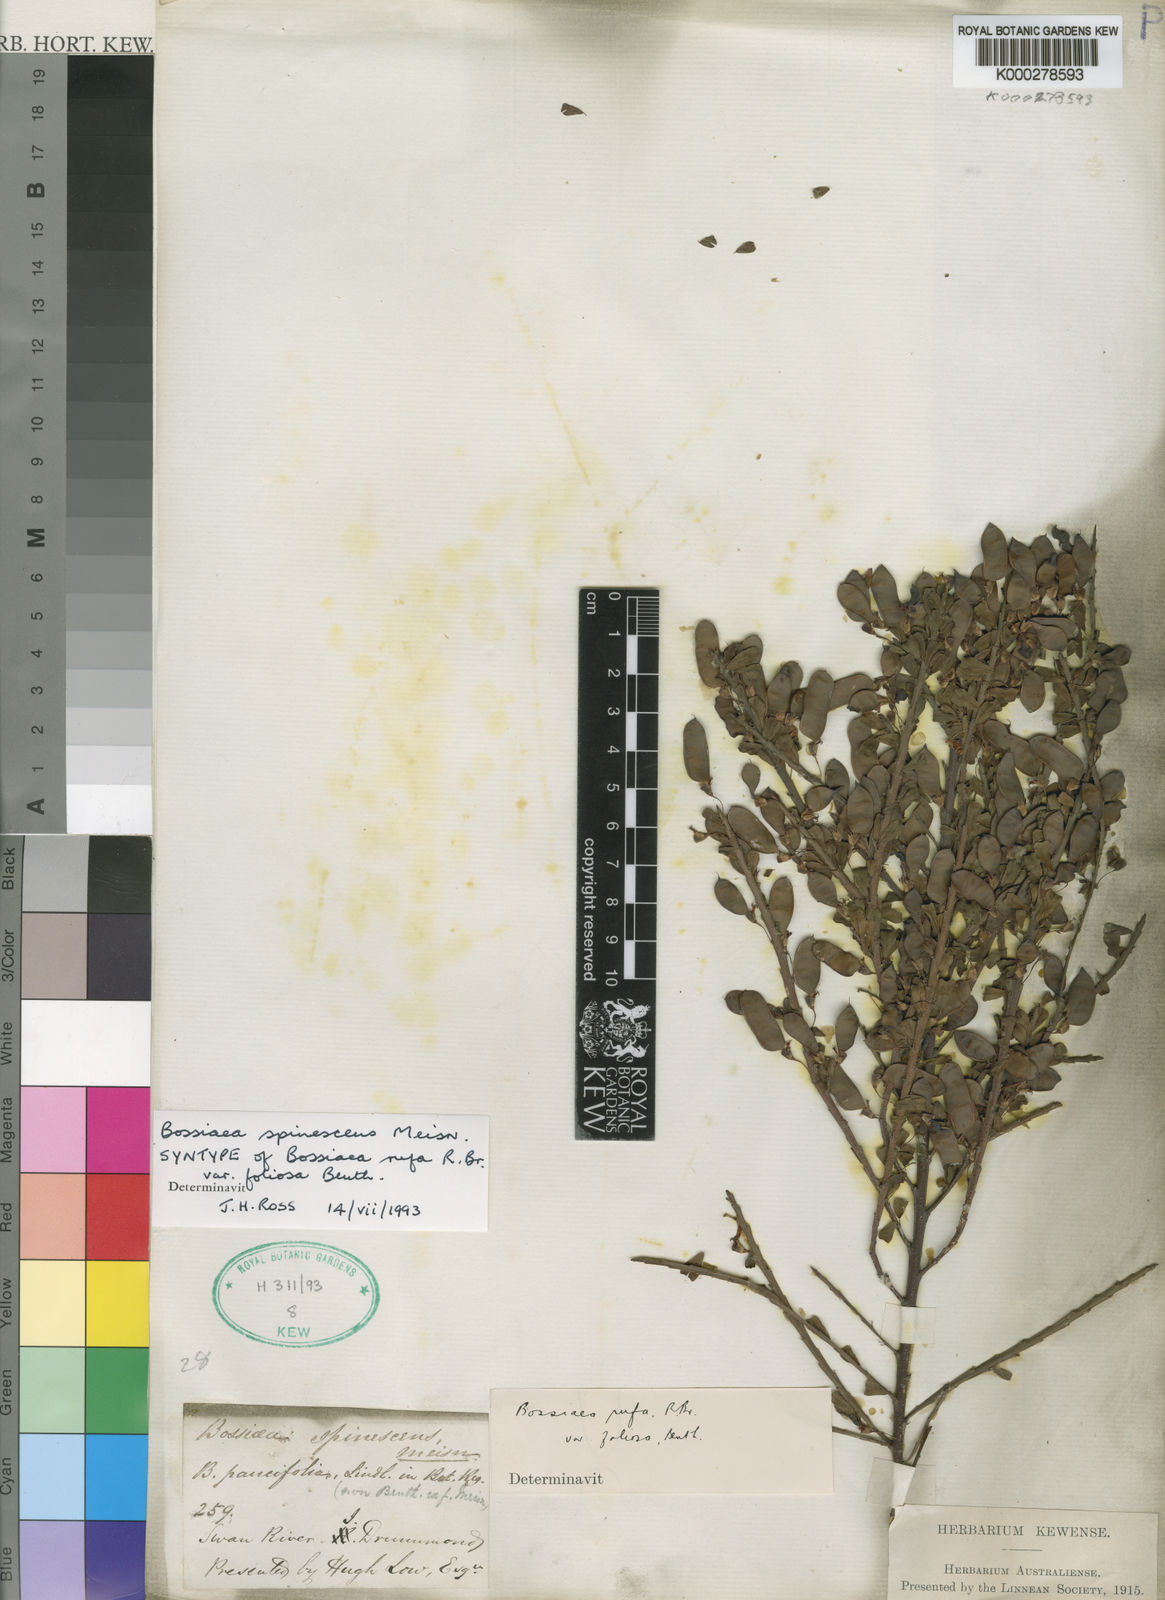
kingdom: Plantae
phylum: Tracheophyta
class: Magnoliopsida
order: Fabales
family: Fabaceae
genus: Bossiaea
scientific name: Bossiaea spinescens
